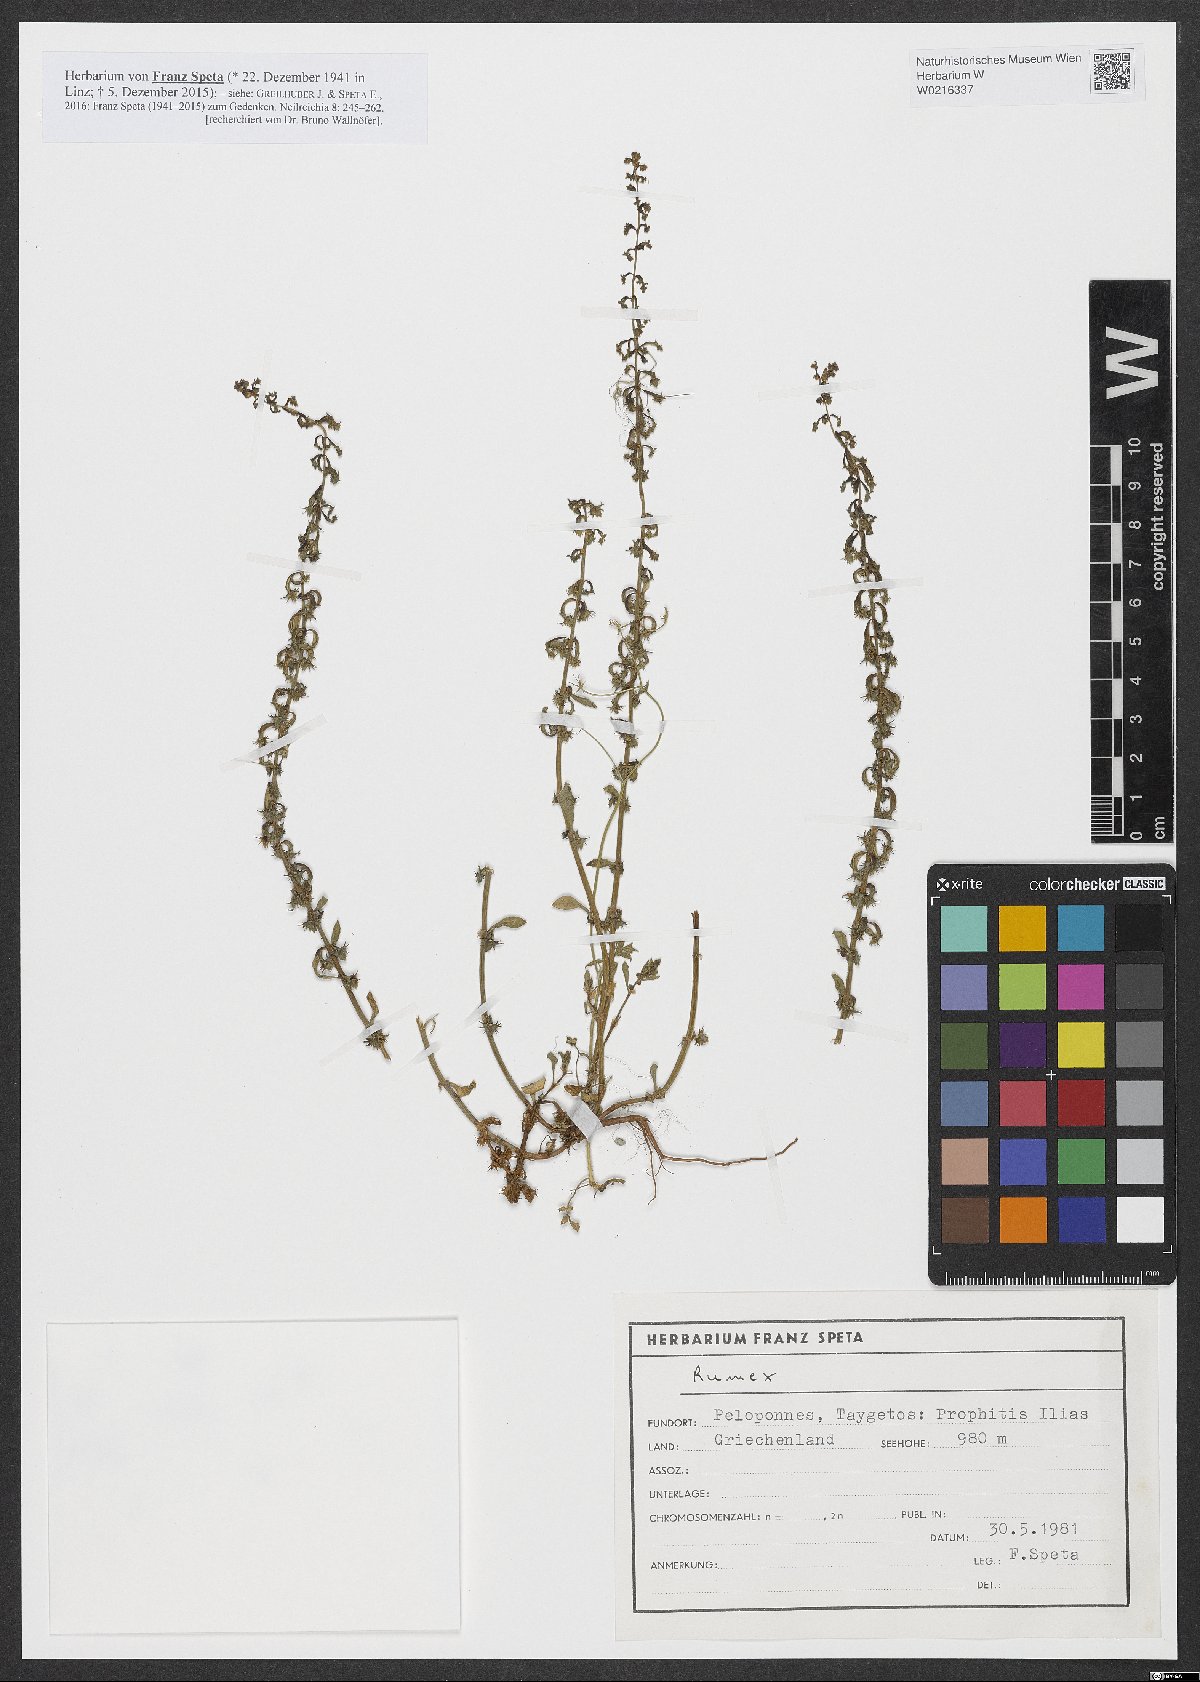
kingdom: Plantae
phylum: Tracheophyta
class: Magnoliopsida
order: Caryophyllales
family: Polygonaceae
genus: Rumex
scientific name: Rumex
